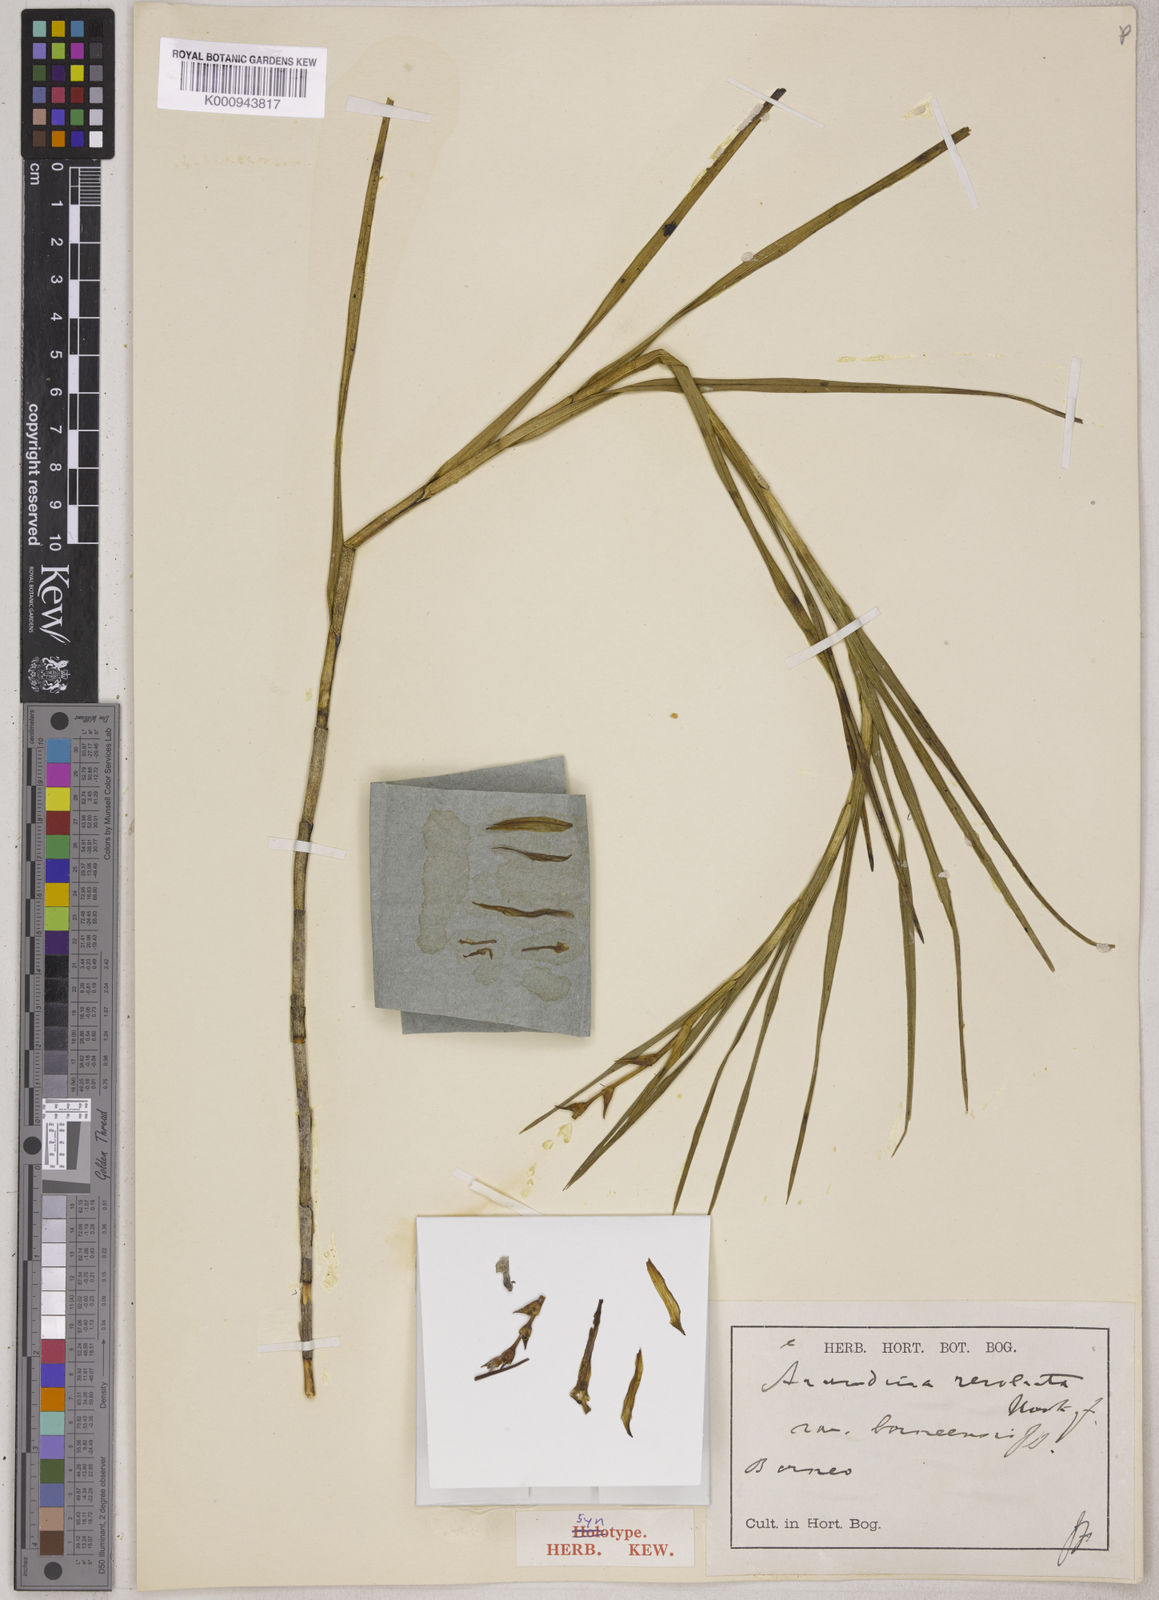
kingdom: Plantae
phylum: Tracheophyta
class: Liliopsida
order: Asparagales
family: Orchidaceae
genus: Arundina
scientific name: Arundina graminifolia
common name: Bamboo orchid
